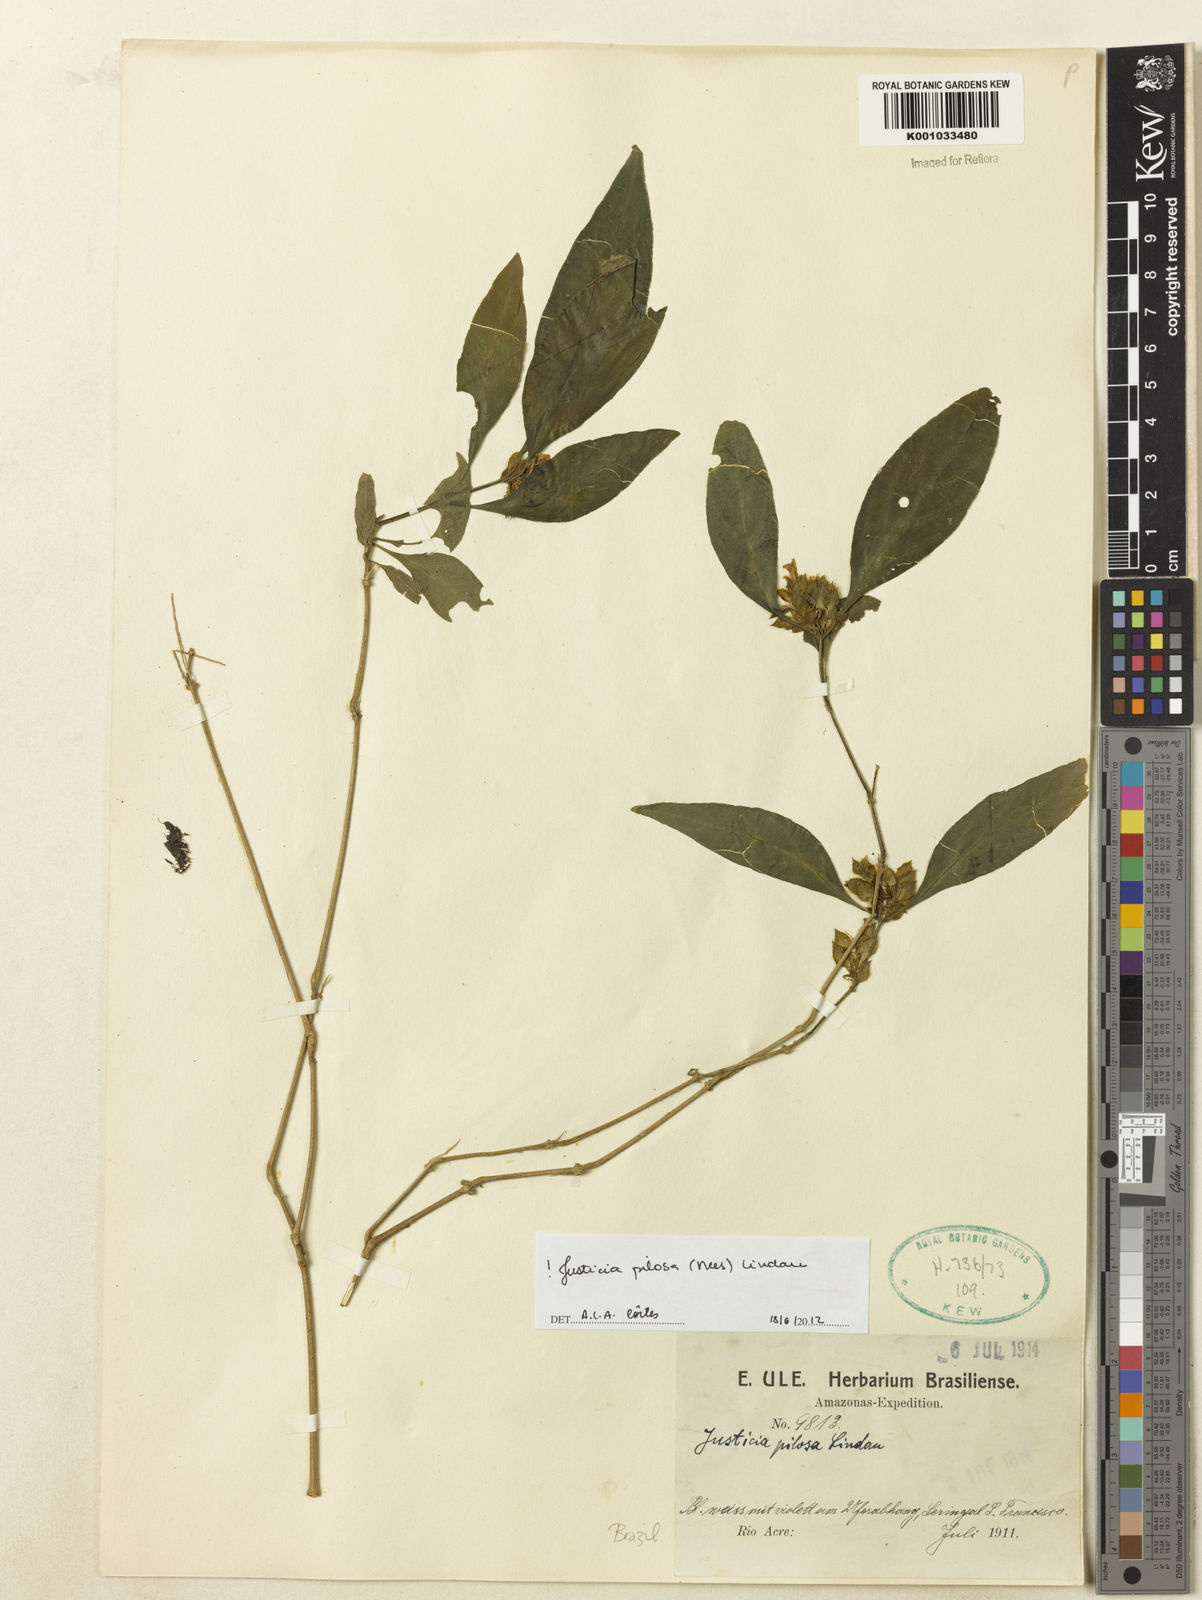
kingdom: Plantae
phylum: Tracheophyta
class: Magnoliopsida
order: Lamiales
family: Acanthaceae
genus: Justicia
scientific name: Justicia pilosa
